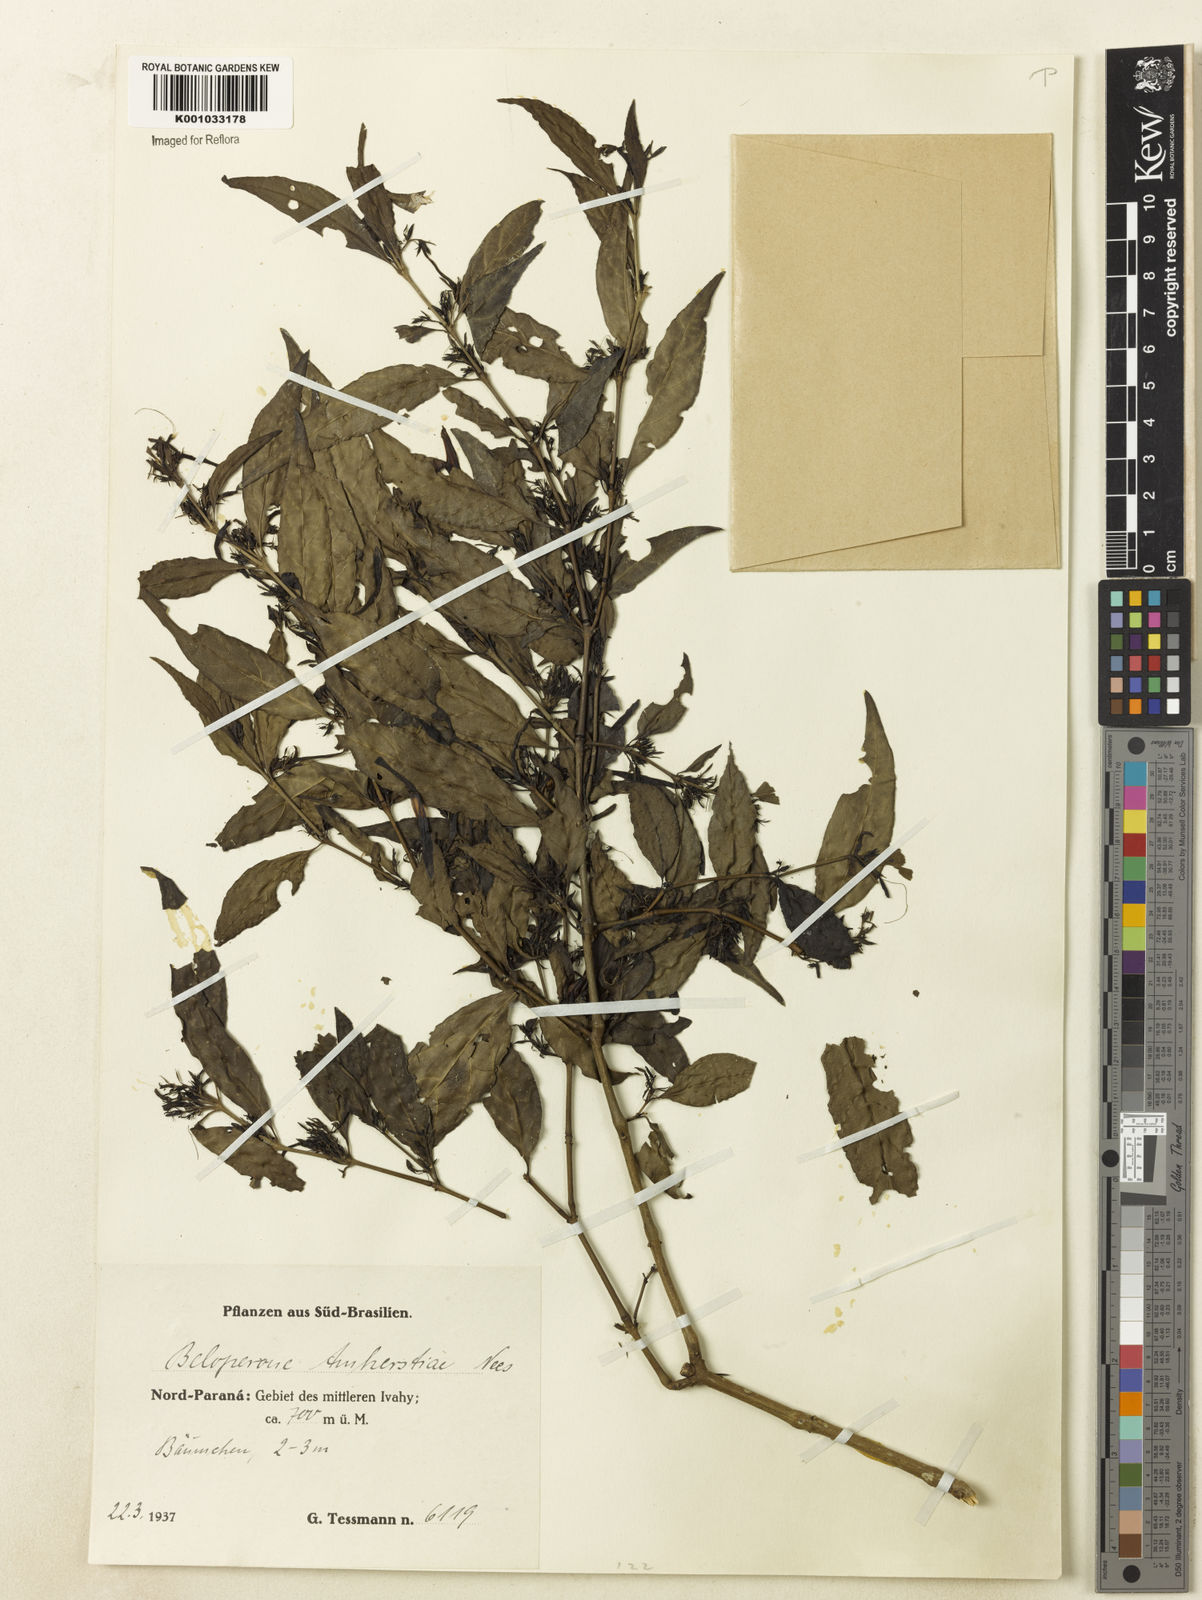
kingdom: Plantae
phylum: Tracheophyta
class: Magnoliopsida
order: Lamiales
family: Acanthaceae
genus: Justicia
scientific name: Justicia brasiliana
